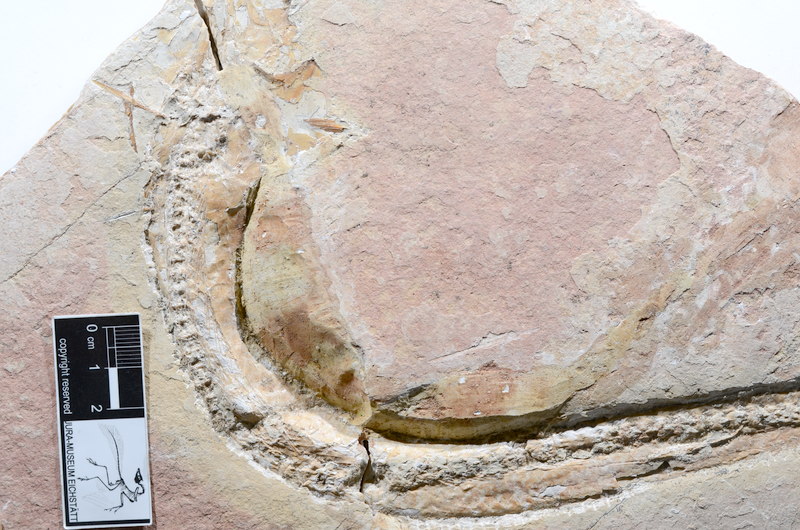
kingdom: Animalia
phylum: Chordata
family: Allothrissopidae
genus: Allothrissops
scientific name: Allothrissops
